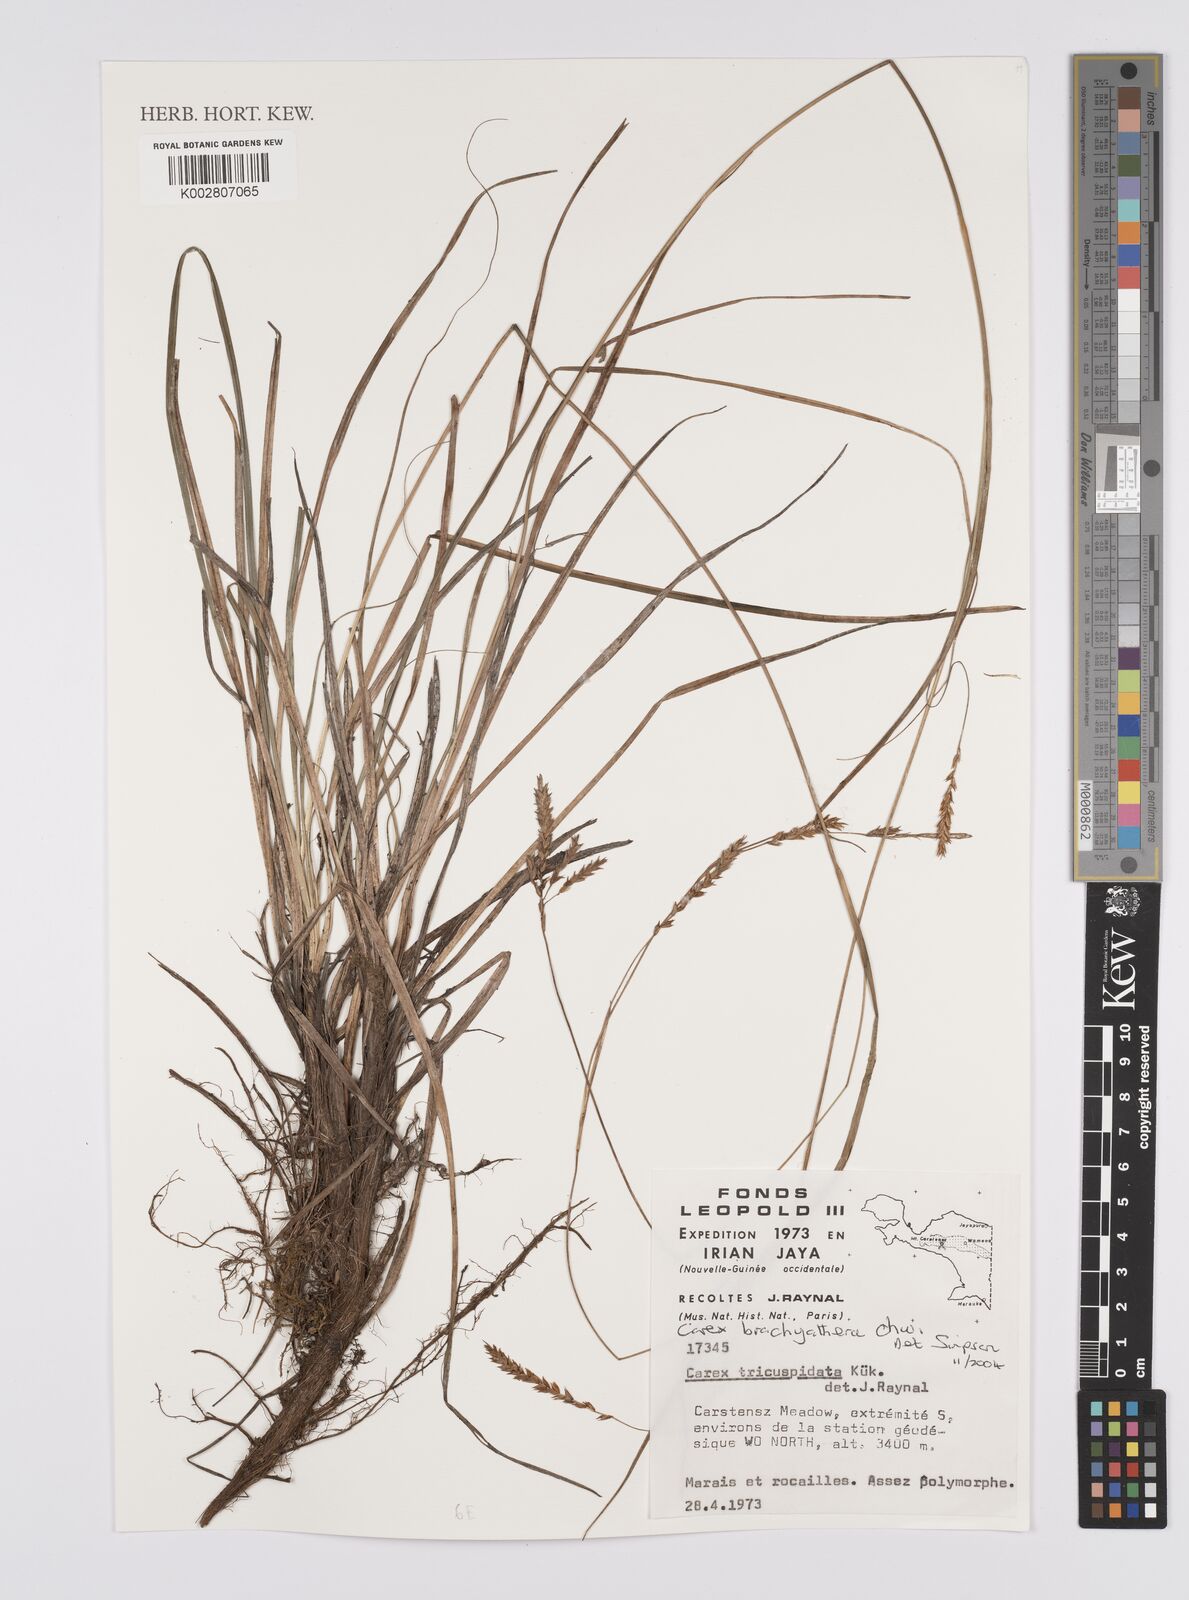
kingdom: Plantae
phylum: Tracheophyta
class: Liliopsida
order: Poales
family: Cyperaceae
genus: Carex
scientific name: Carex brachyanthera
